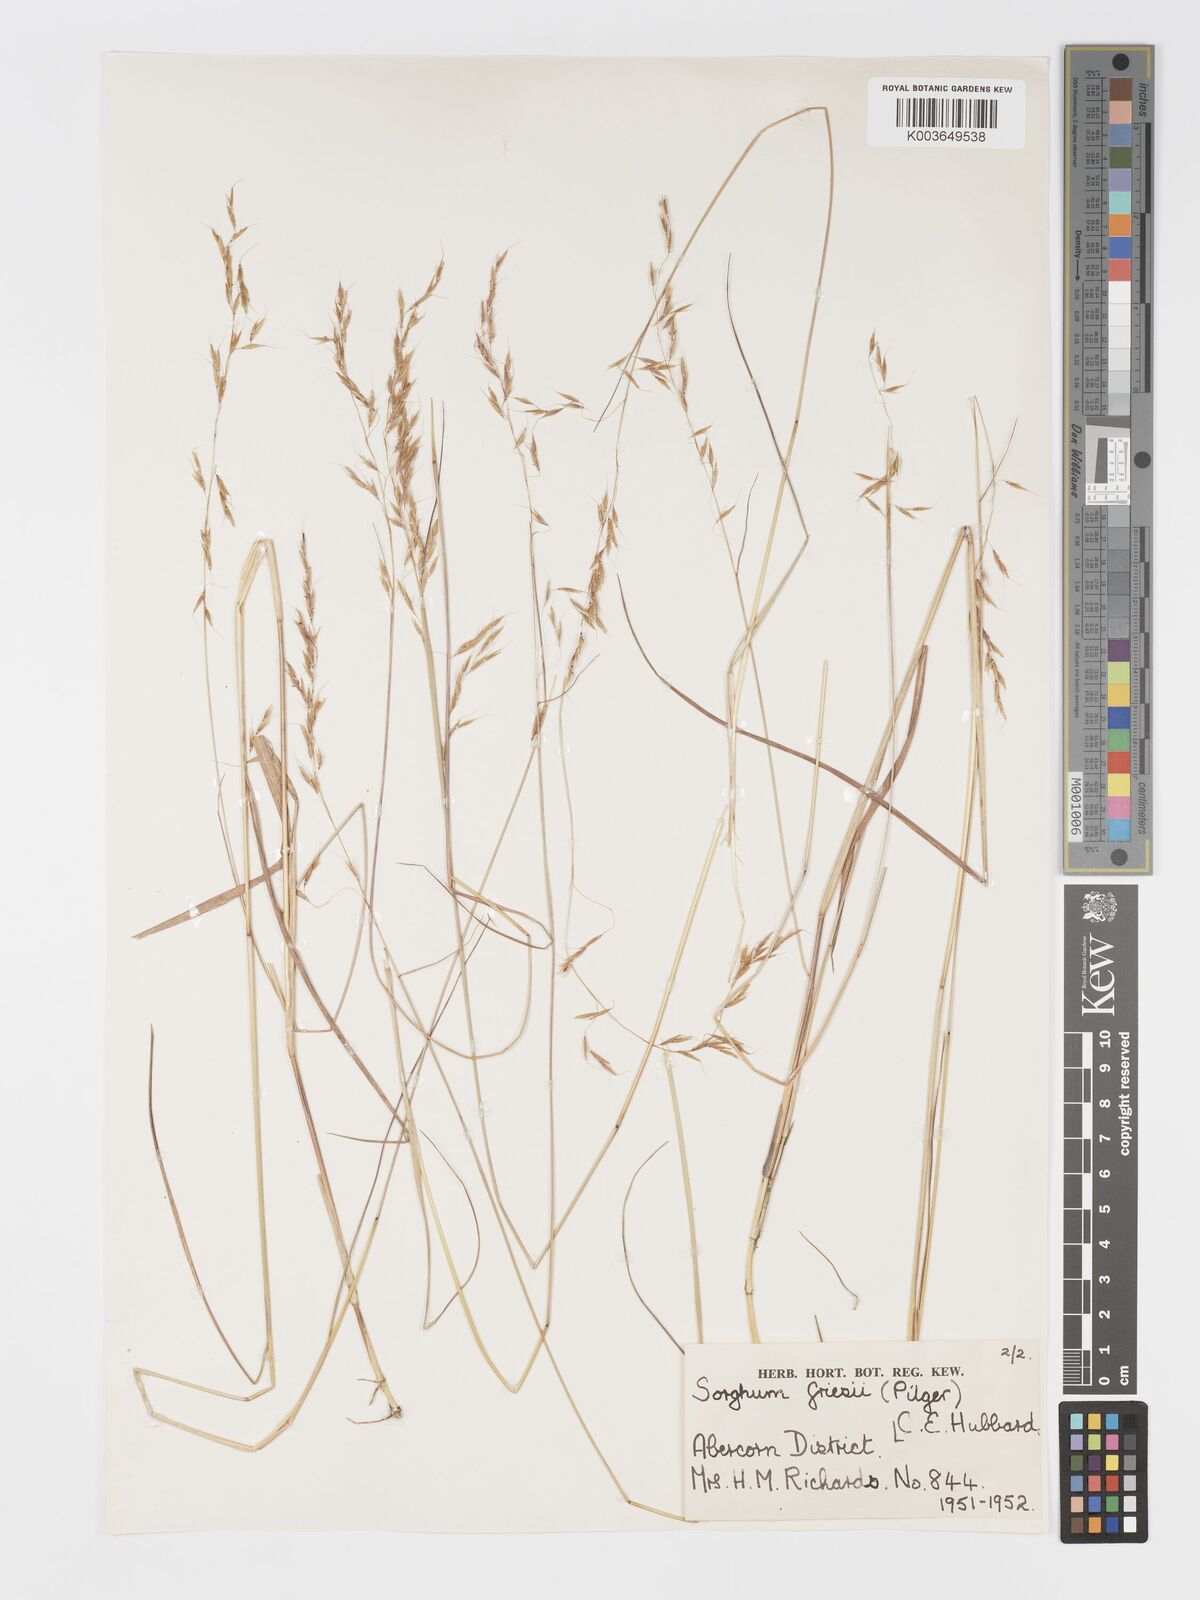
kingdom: Plantae
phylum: Tracheophyta
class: Liliopsida
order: Poales
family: Poaceae
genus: Sorghastrum
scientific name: Sorghastrum nudipes
